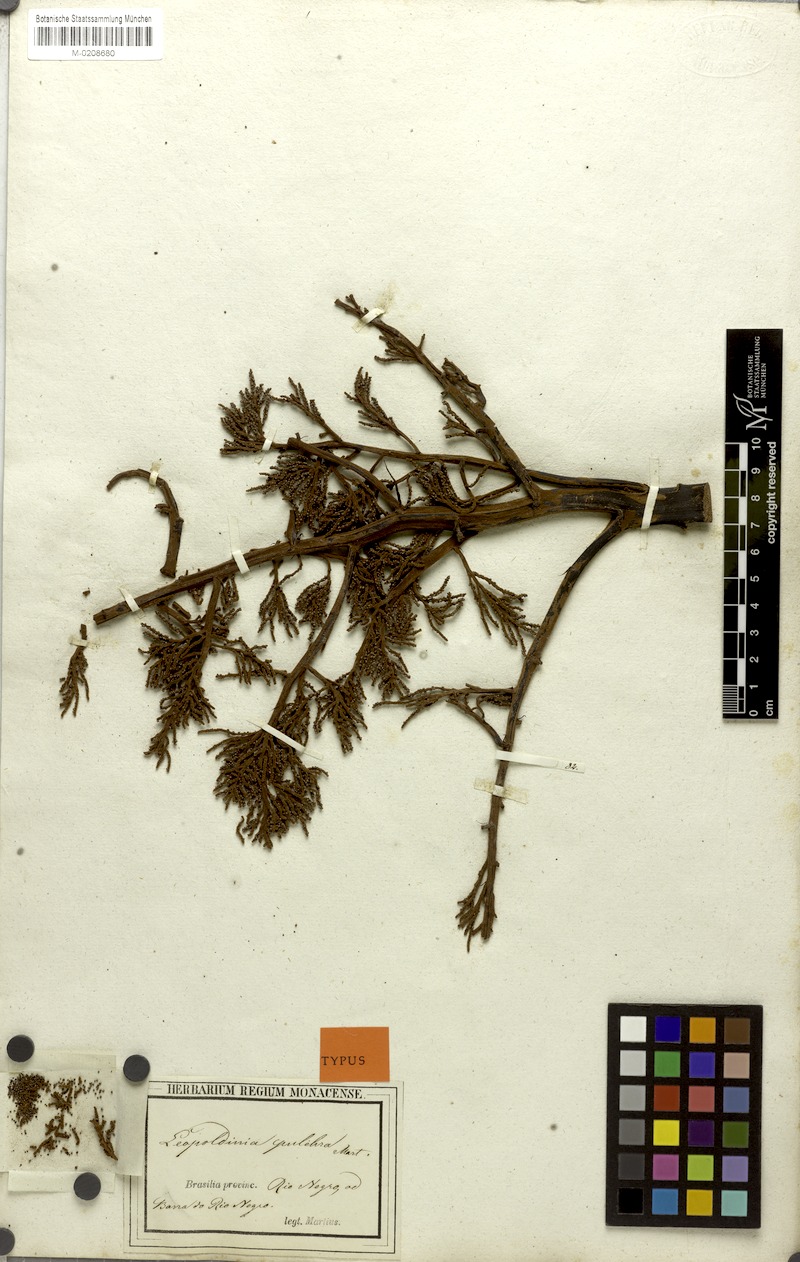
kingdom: Plantae
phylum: Tracheophyta
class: Liliopsida
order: Arecales
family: Arecaceae
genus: Leopoldinia
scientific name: Leopoldinia pulchra
